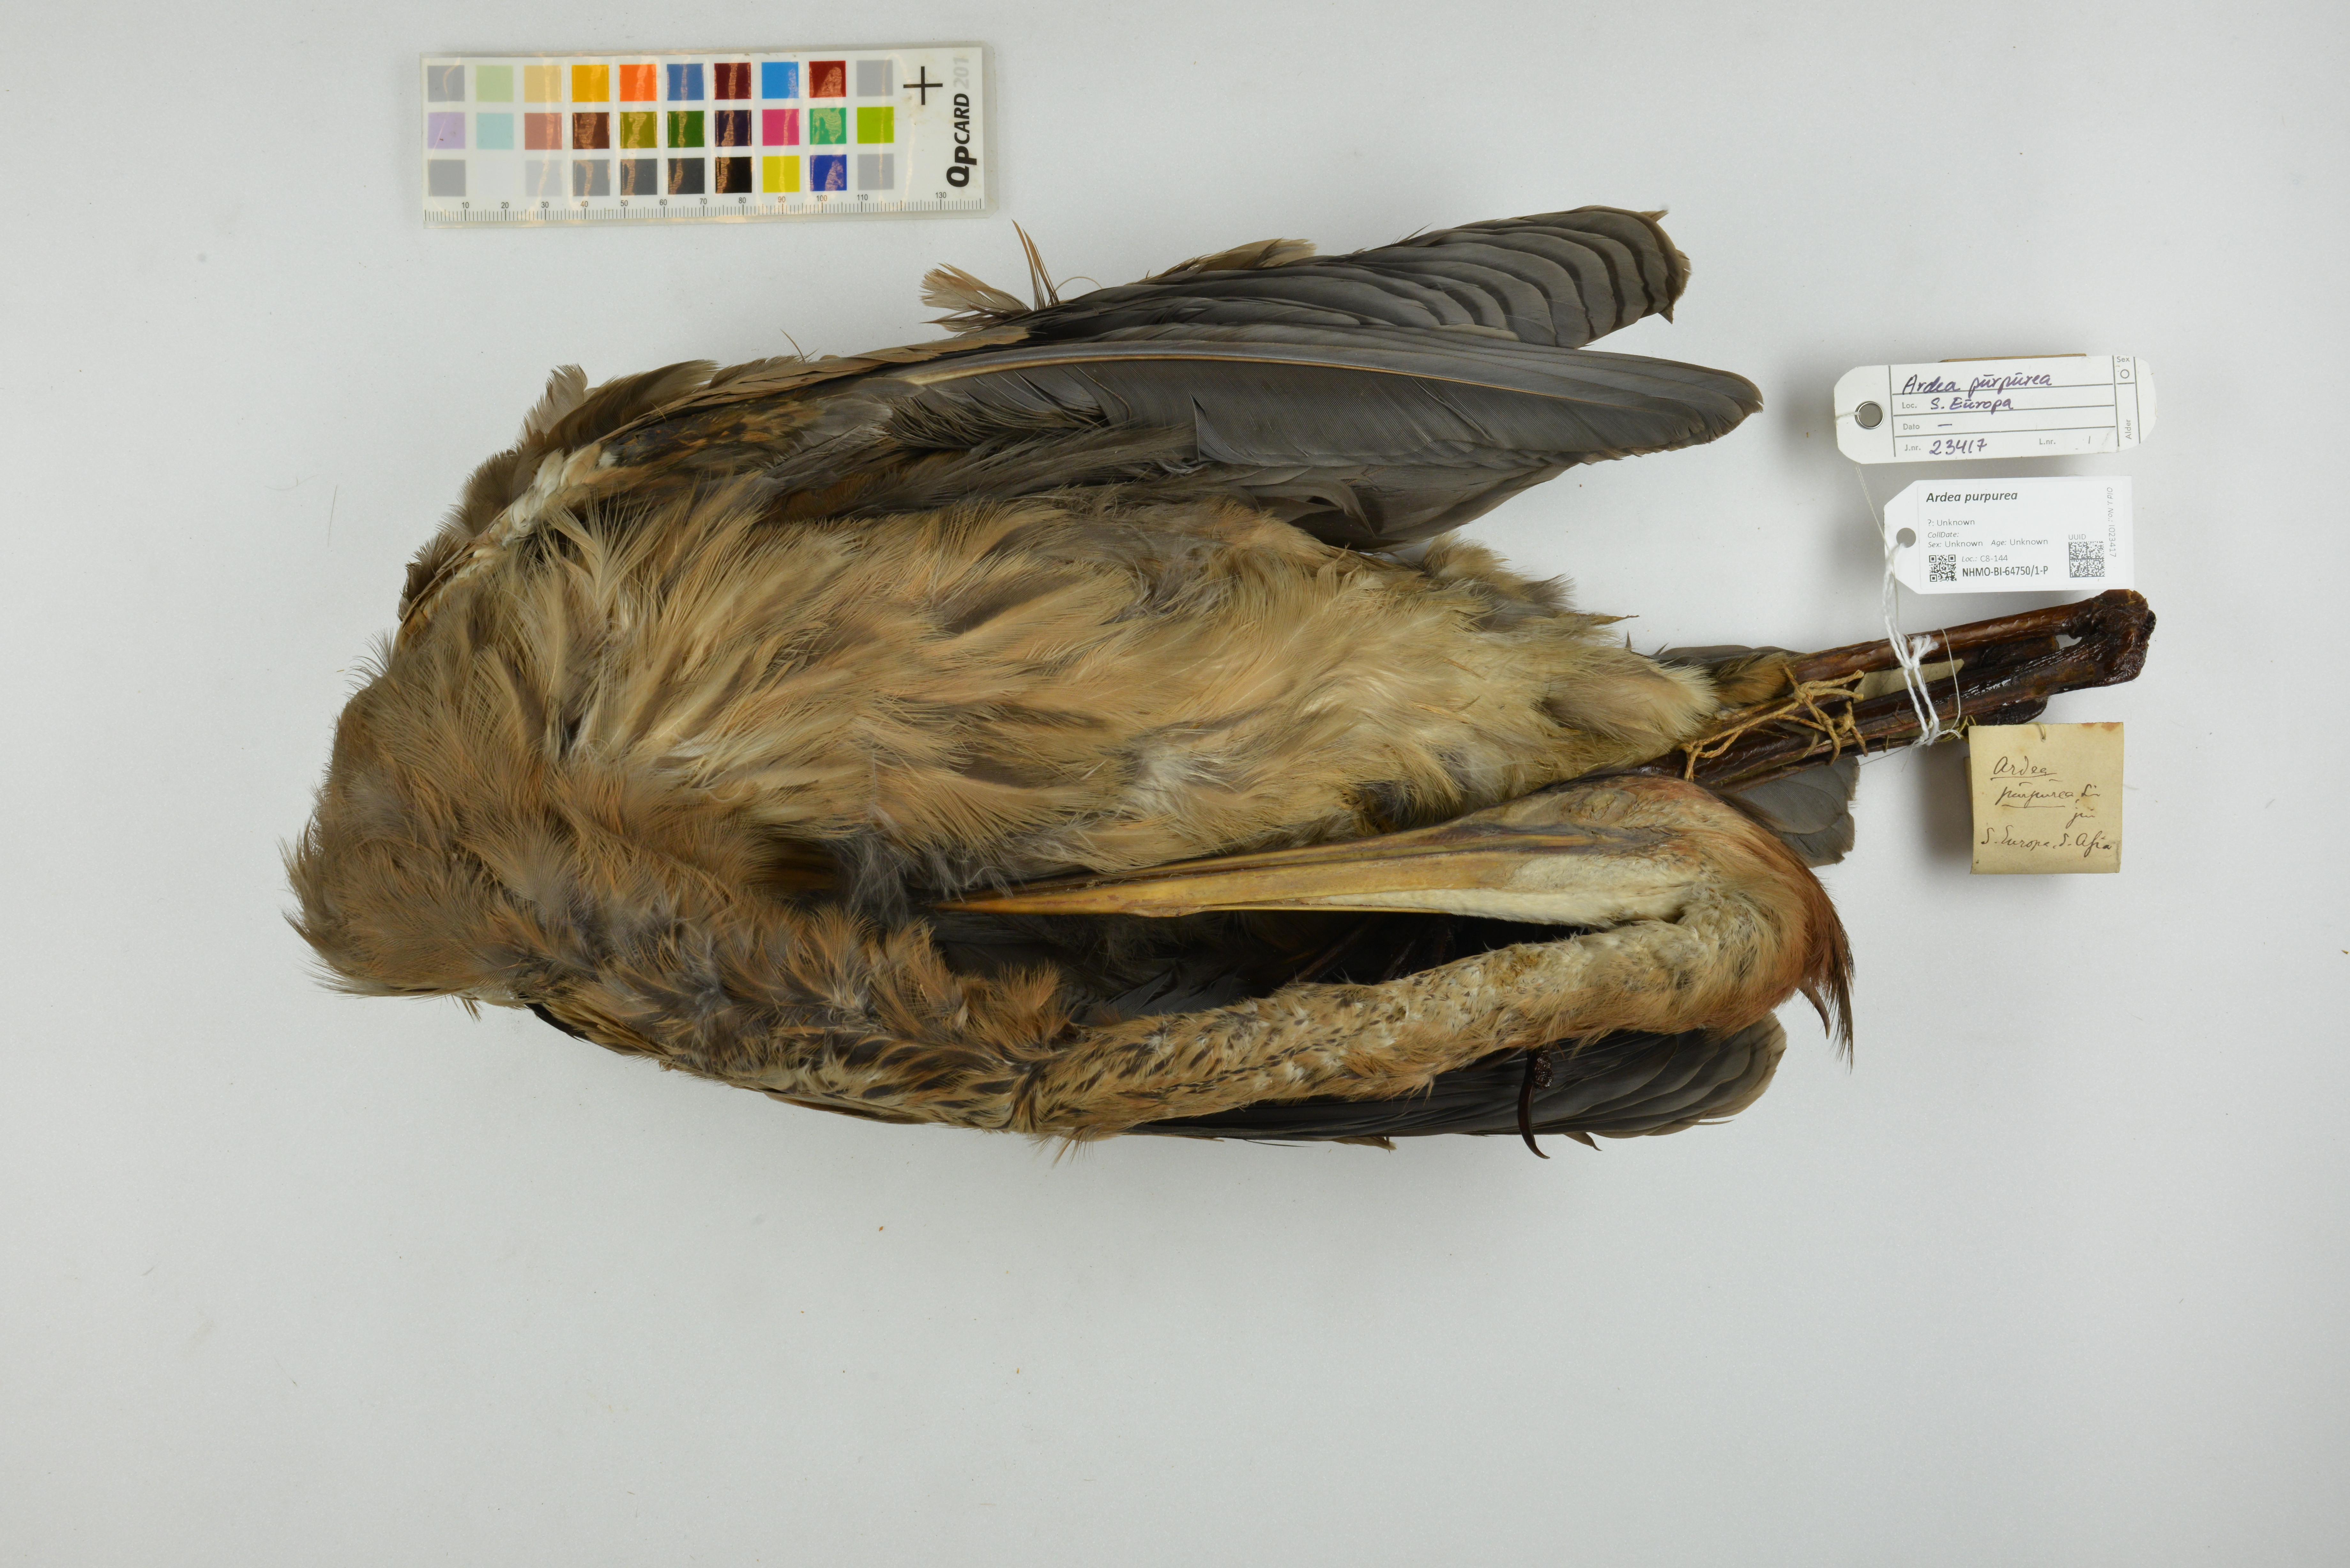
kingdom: Animalia
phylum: Chordata
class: Aves
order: Pelecaniformes
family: Ardeidae
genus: Ardea
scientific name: Ardea purpurea
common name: Purple heron
